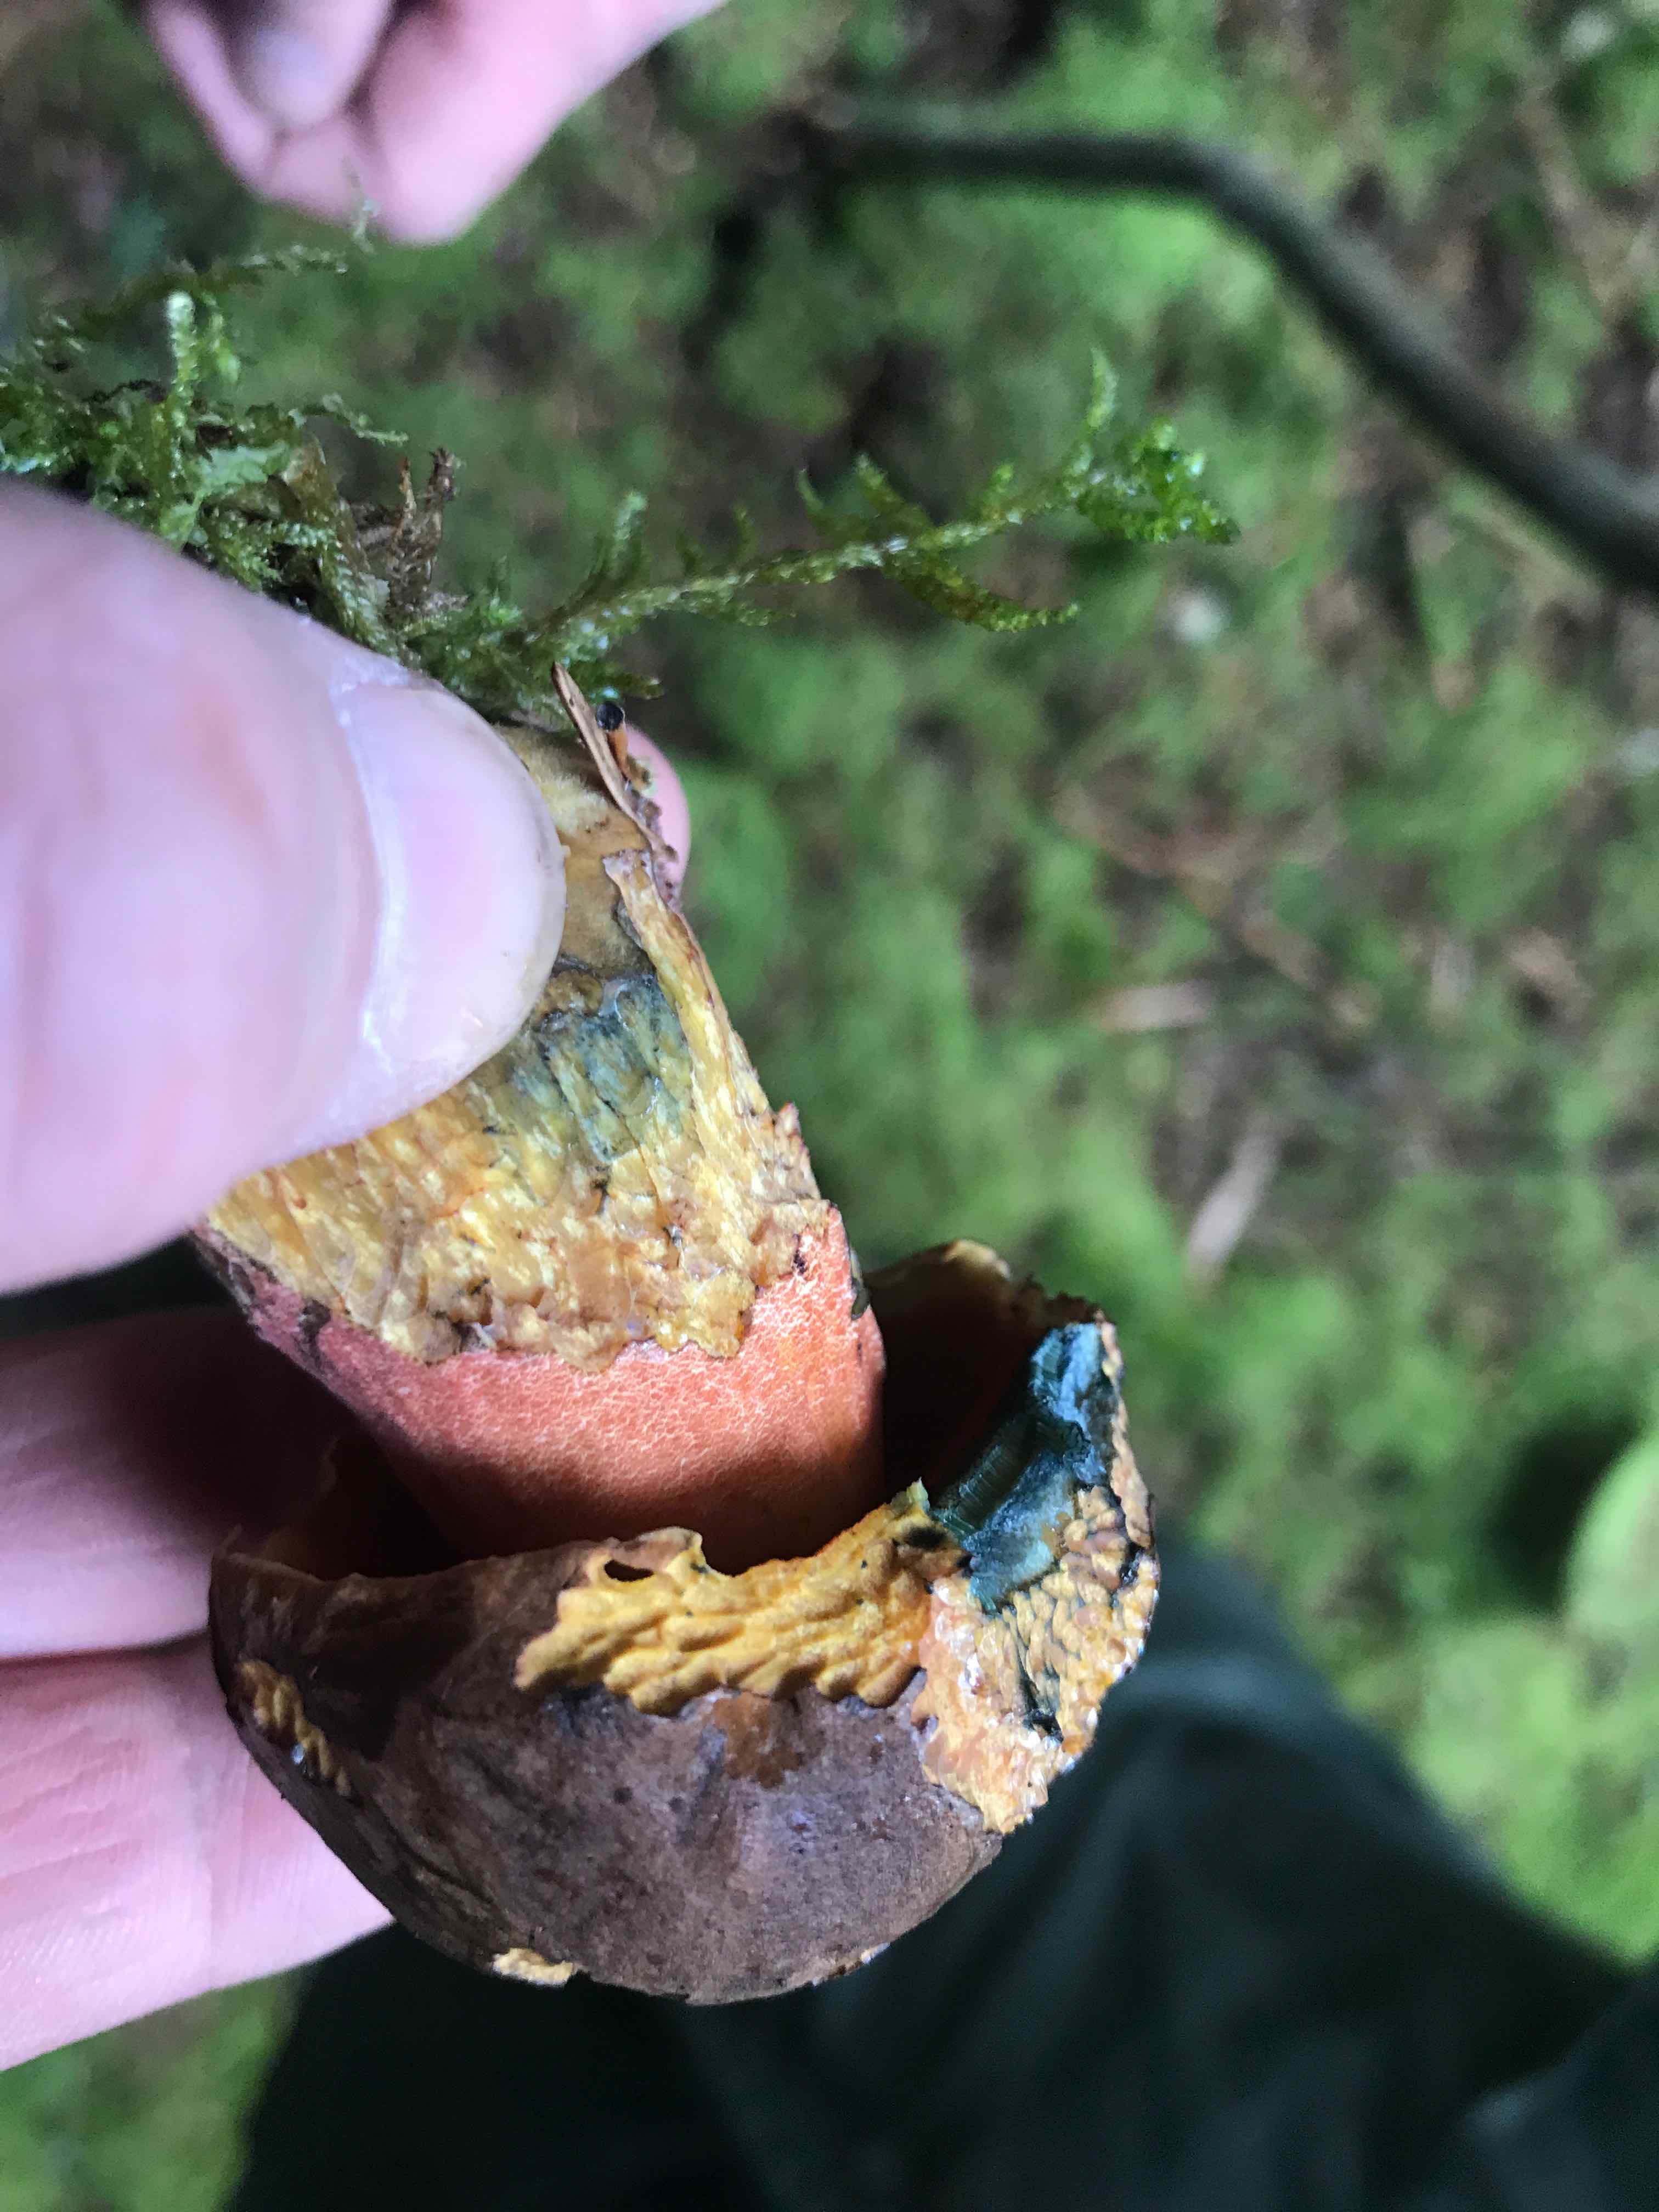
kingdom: Fungi
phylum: Basidiomycota
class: Agaricomycetes
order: Boletales
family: Boletaceae
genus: Neoboletus
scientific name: Neoboletus erythropus
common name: punktstokket indigorørhat
